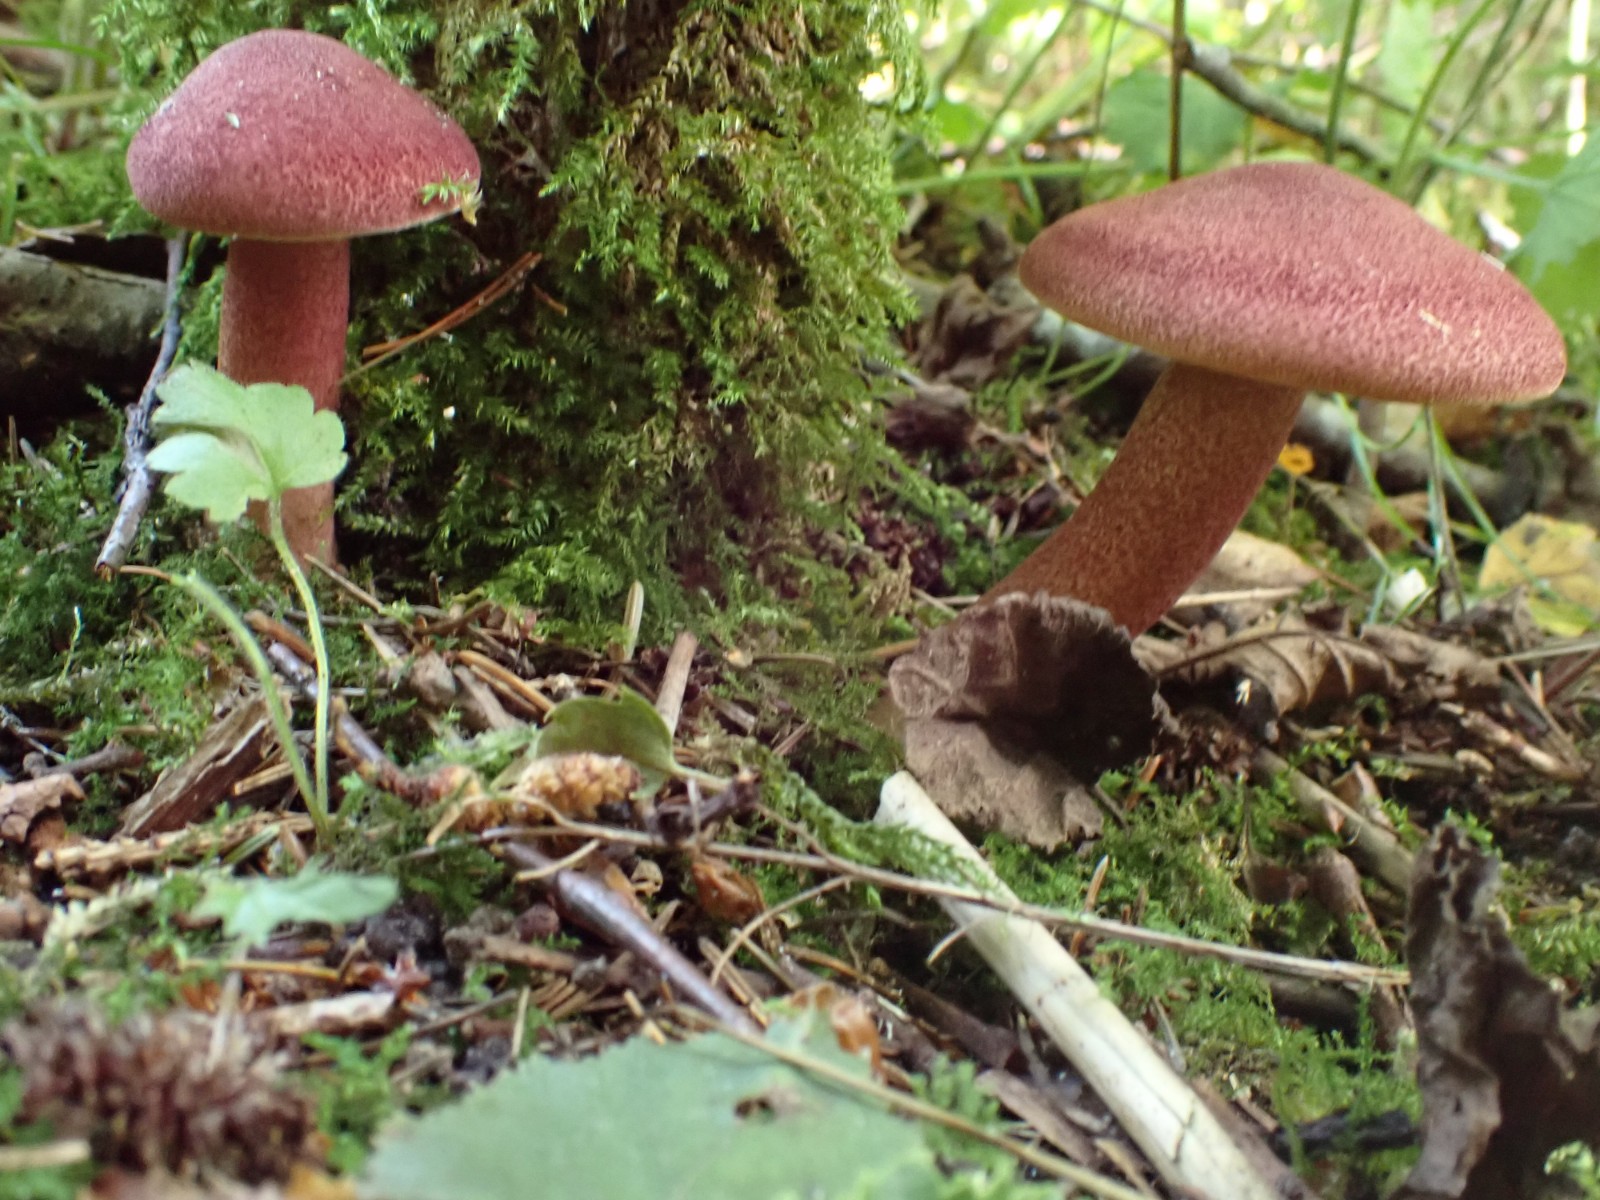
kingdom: Fungi
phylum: Basidiomycota
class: Agaricomycetes
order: Agaricales
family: Tricholomataceae
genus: Tricholomopsis
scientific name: Tricholomopsis rutilans
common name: purpur-væbnerhat
